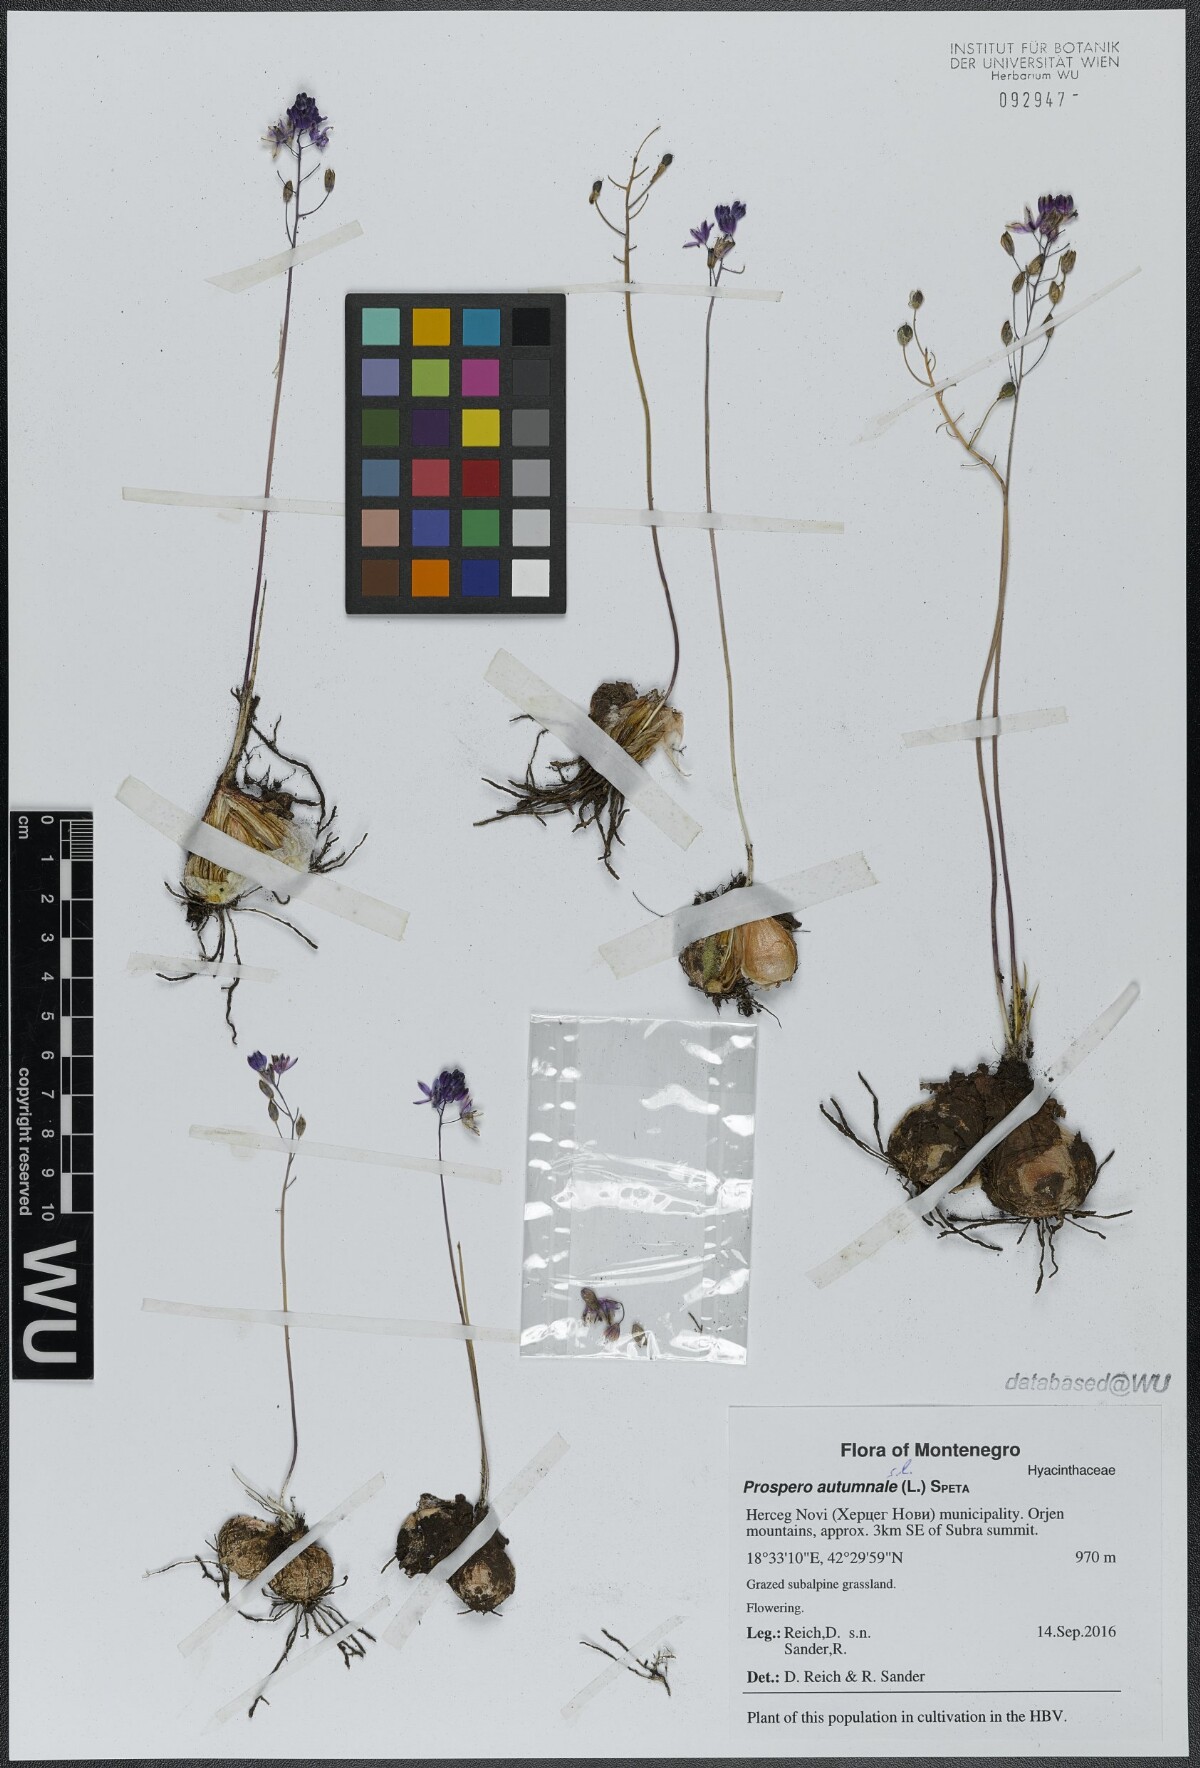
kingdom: Plantae
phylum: Tracheophyta
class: Liliopsida
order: Asparagales
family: Asparagaceae
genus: Prospero
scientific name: Prospero autumnale
